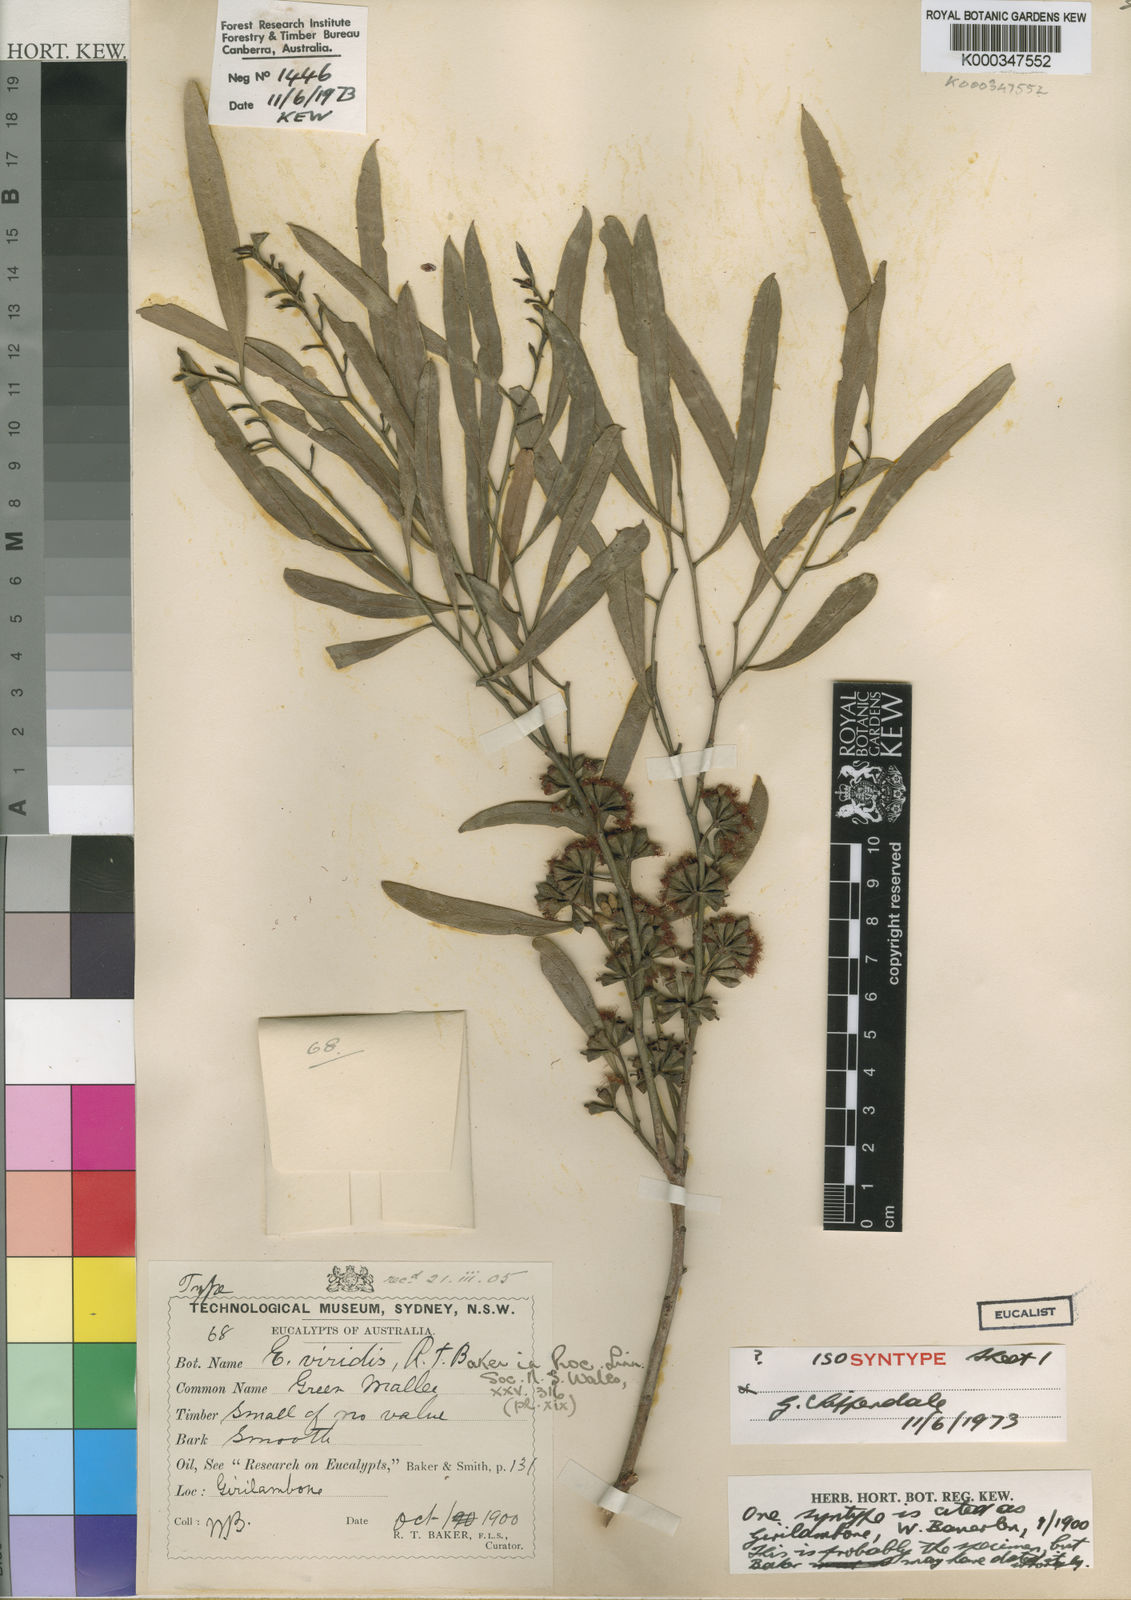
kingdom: Plantae
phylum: Tracheophyta
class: Magnoliopsida
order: Myrtales
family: Myrtaceae
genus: Eucalyptus
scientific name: Eucalyptus viridis
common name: Green mallee
